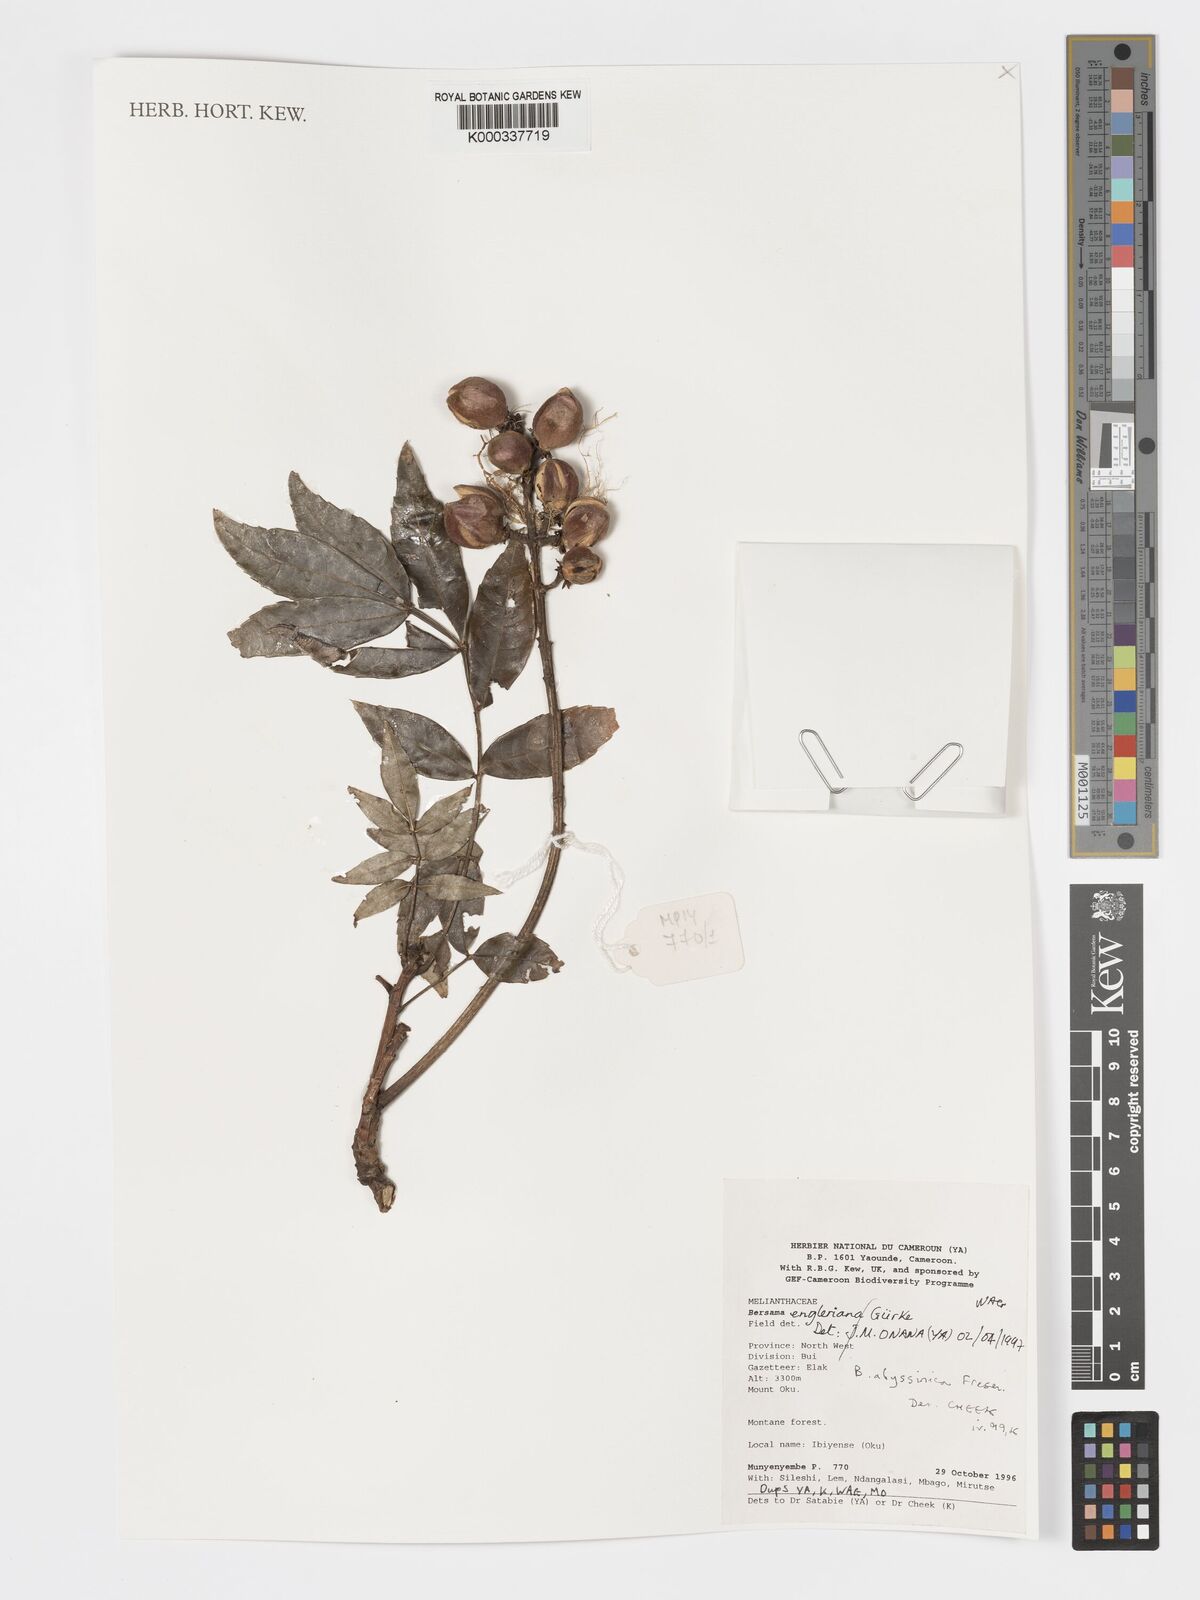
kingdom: Plantae
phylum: Tracheophyta
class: Magnoliopsida
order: Geraniales
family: Melianthaceae
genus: Bersama
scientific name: Bersama abyssinica
